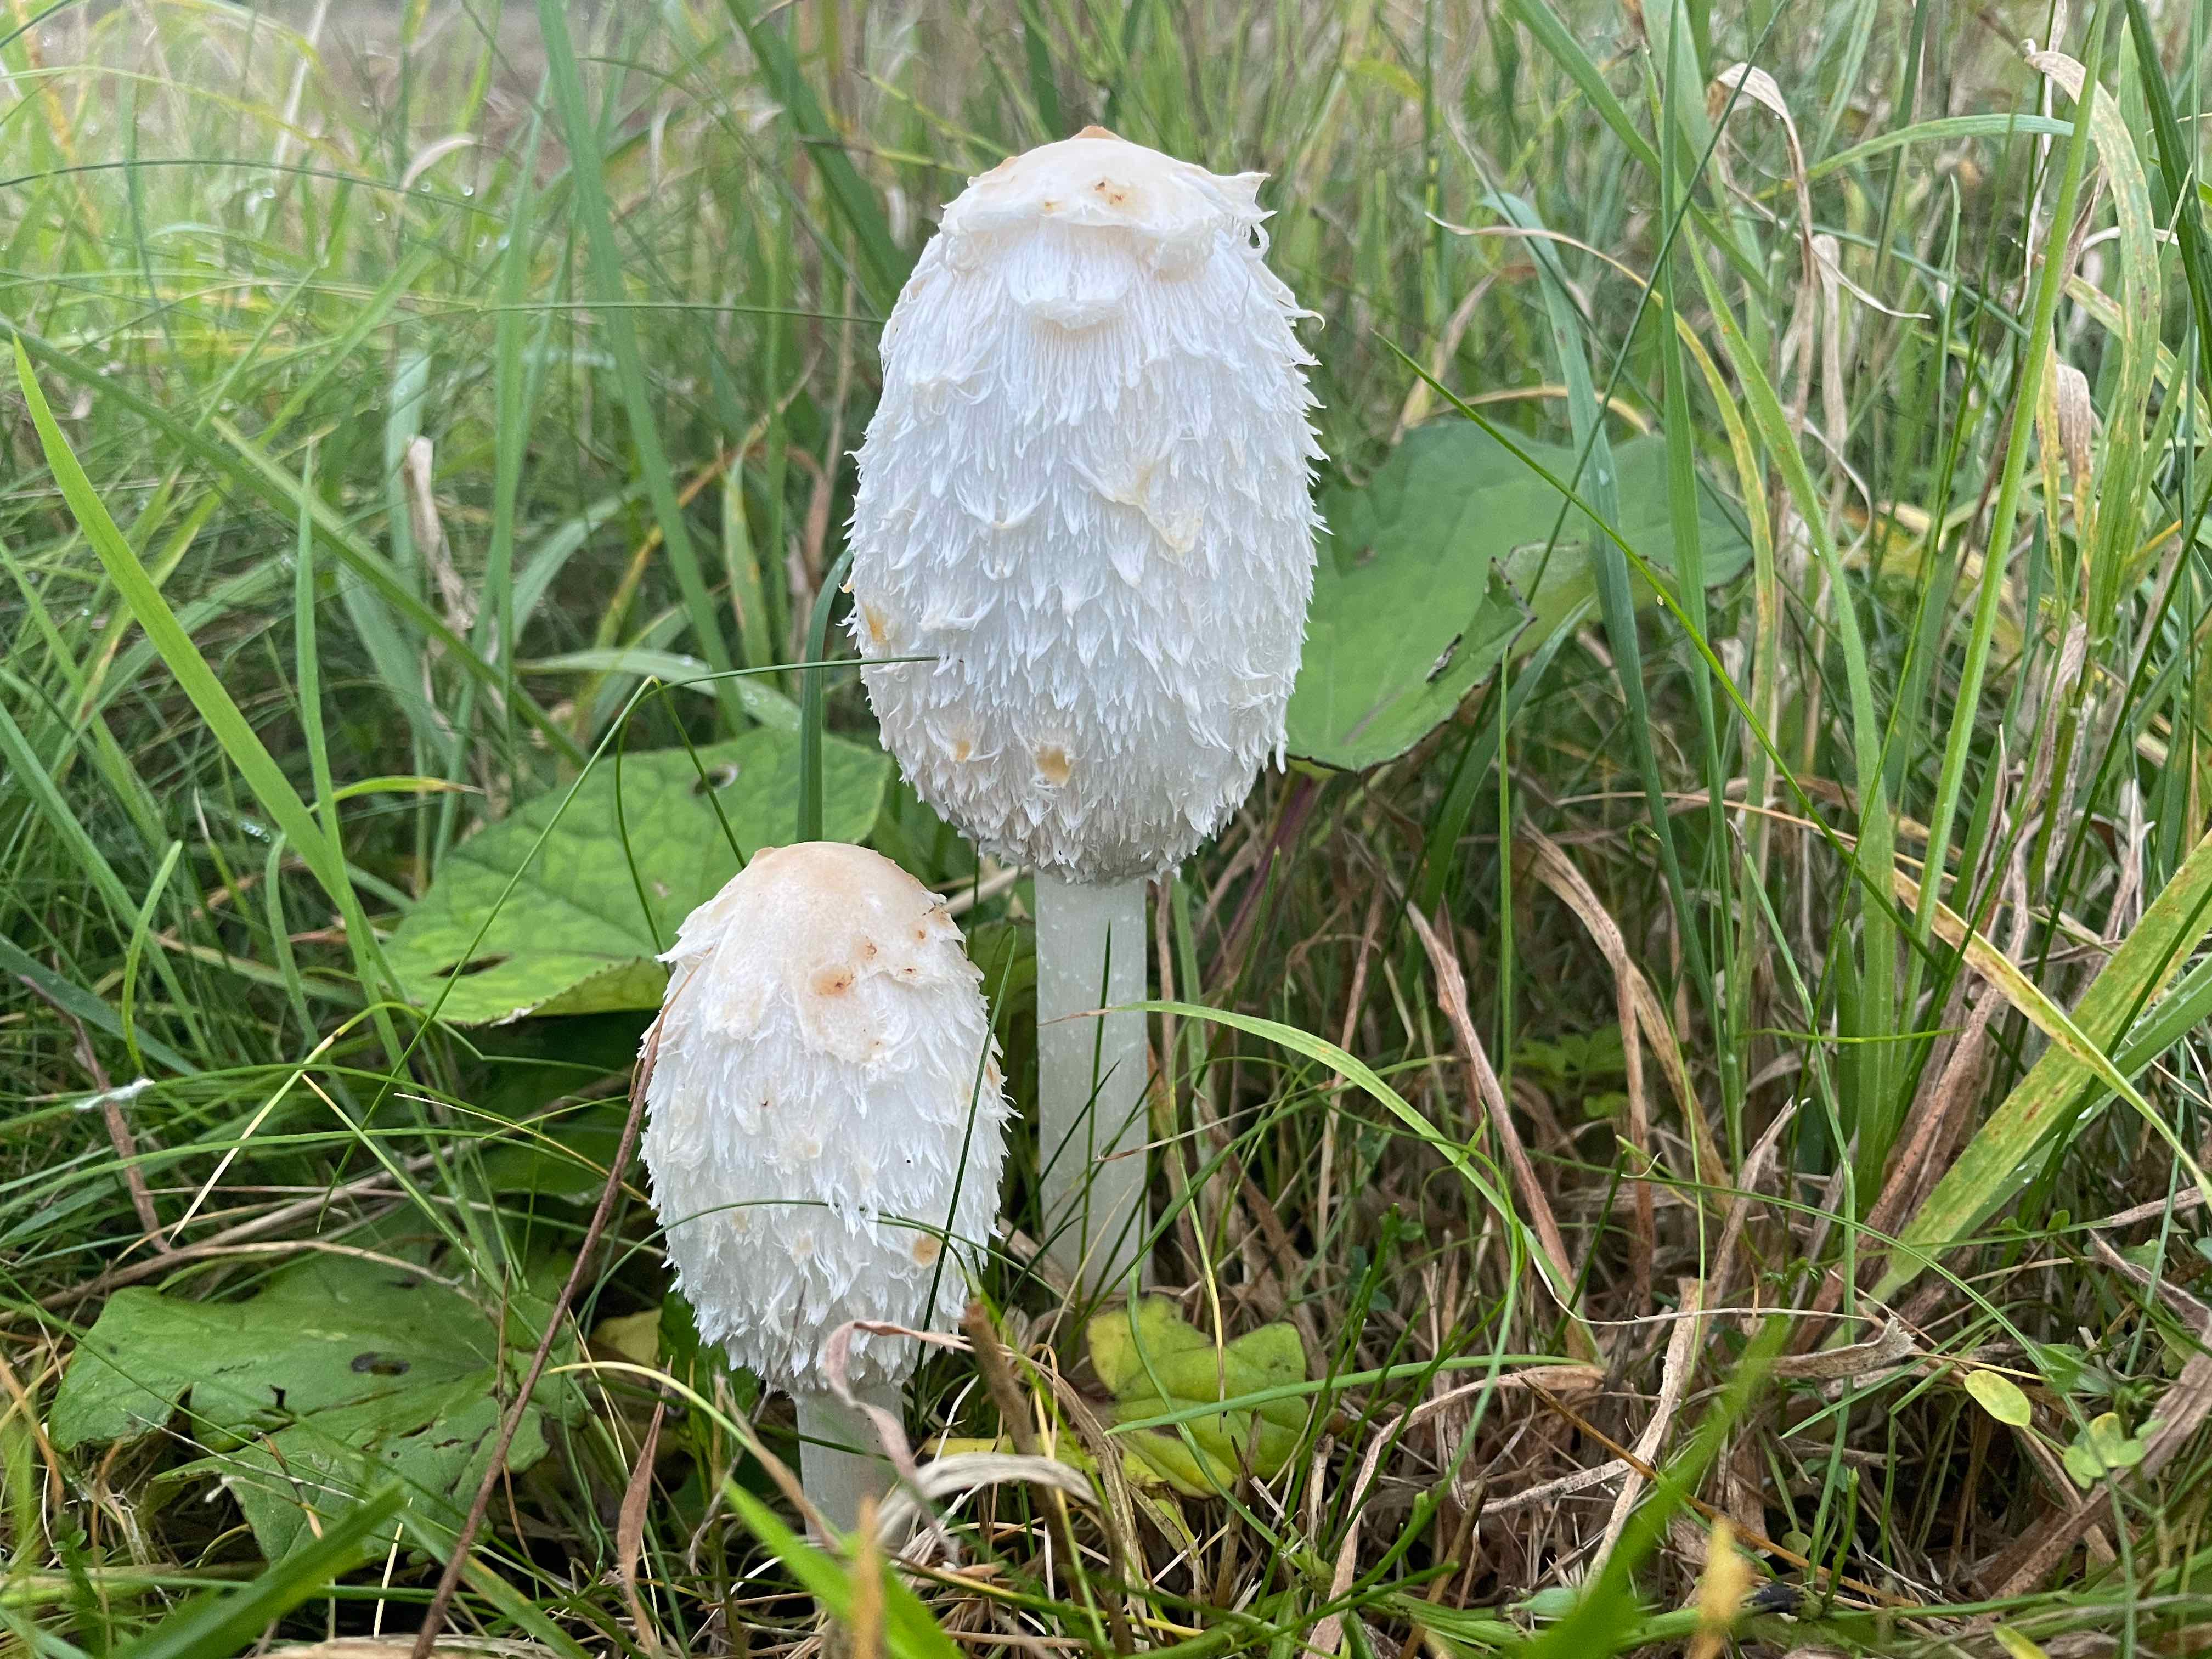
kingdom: Fungi
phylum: Basidiomycota
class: Agaricomycetes
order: Agaricales
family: Agaricaceae
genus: Coprinus
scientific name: Coprinus comatus
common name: stor parykhat
